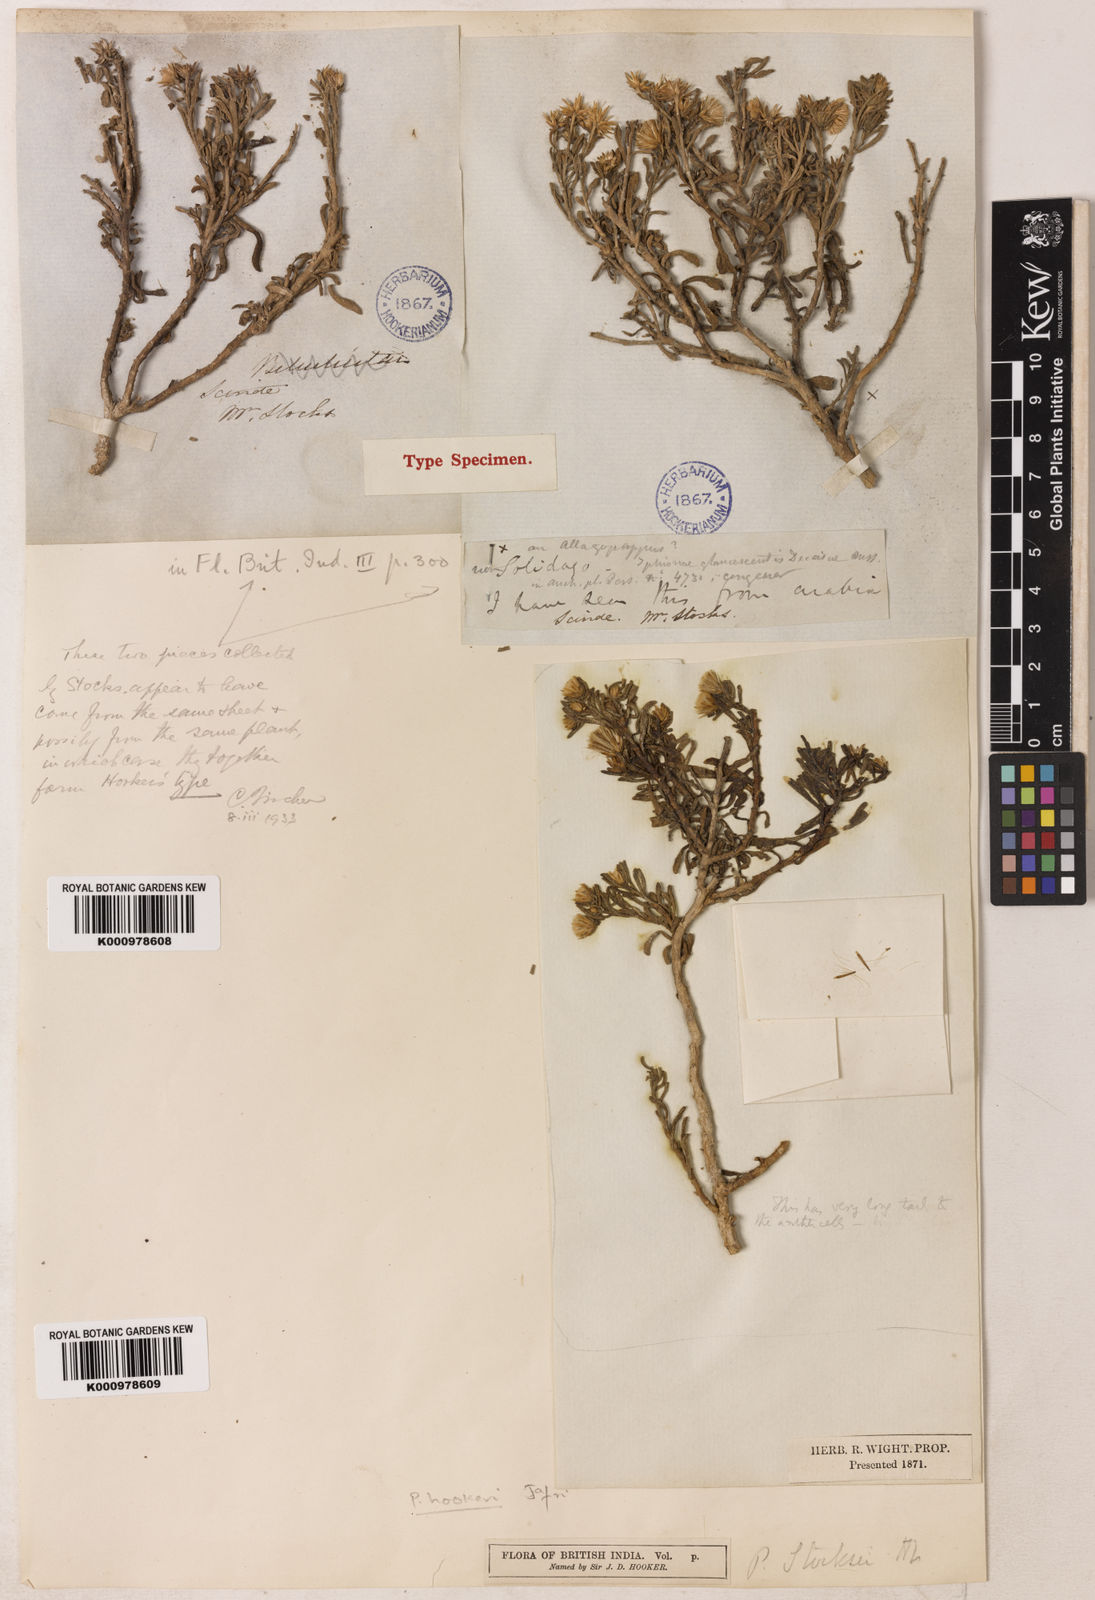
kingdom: Plantae
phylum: Tracheophyta
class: Magnoliopsida
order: Asterales
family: Asteraceae
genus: Pulicaria
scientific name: Pulicaria carnosa
